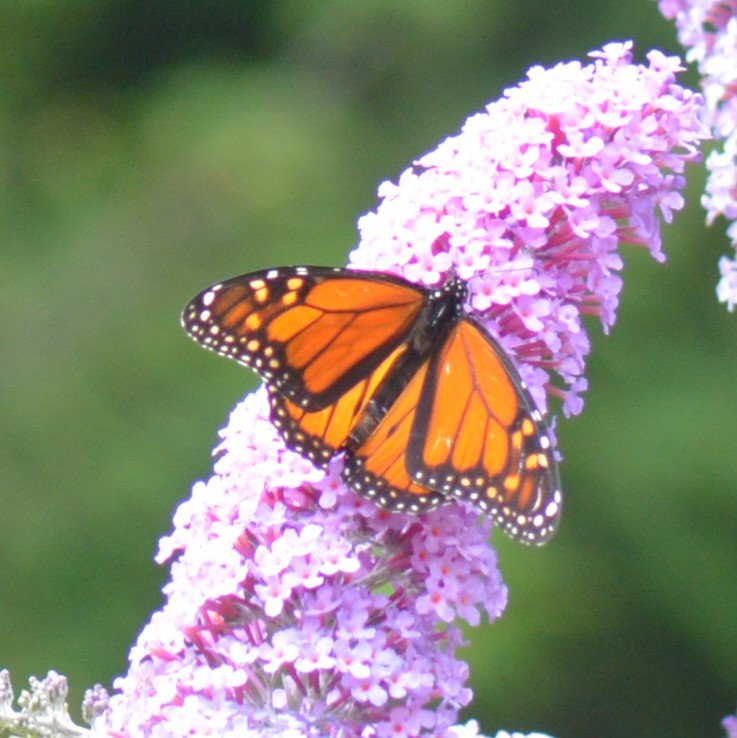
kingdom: Animalia
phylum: Arthropoda
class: Insecta
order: Lepidoptera
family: Nymphalidae
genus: Danaus
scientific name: Danaus plexippus
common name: Monarch
